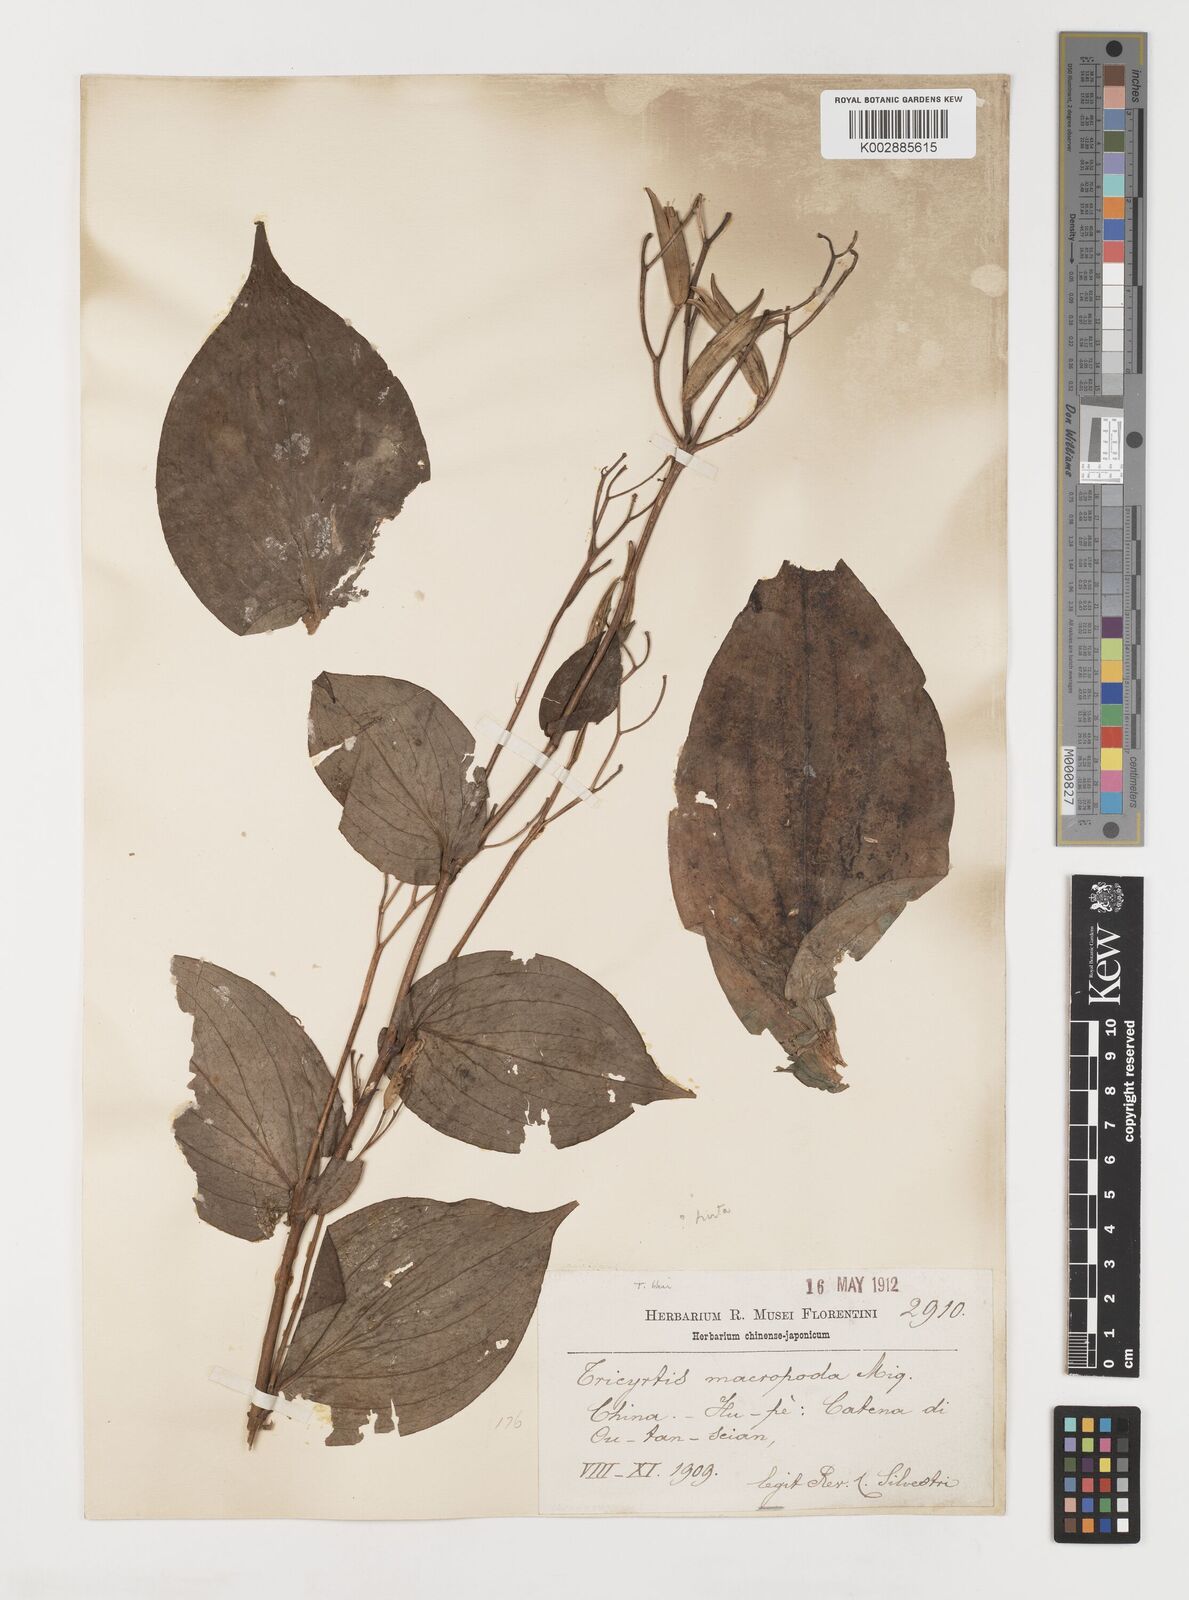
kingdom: Plantae
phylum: Tracheophyta
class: Liliopsida
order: Liliales
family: Liliaceae
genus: Tricyrtis
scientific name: Tricyrtis latifolia
